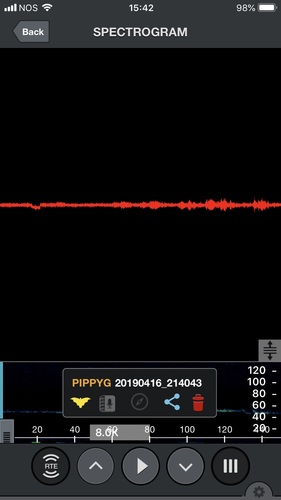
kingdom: Animalia
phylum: Chordata
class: Mammalia
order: Chiroptera
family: Vespertilionidae
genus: Pipistrellus
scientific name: Pipistrellus pygmaeus
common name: Soprano pipistrelle
